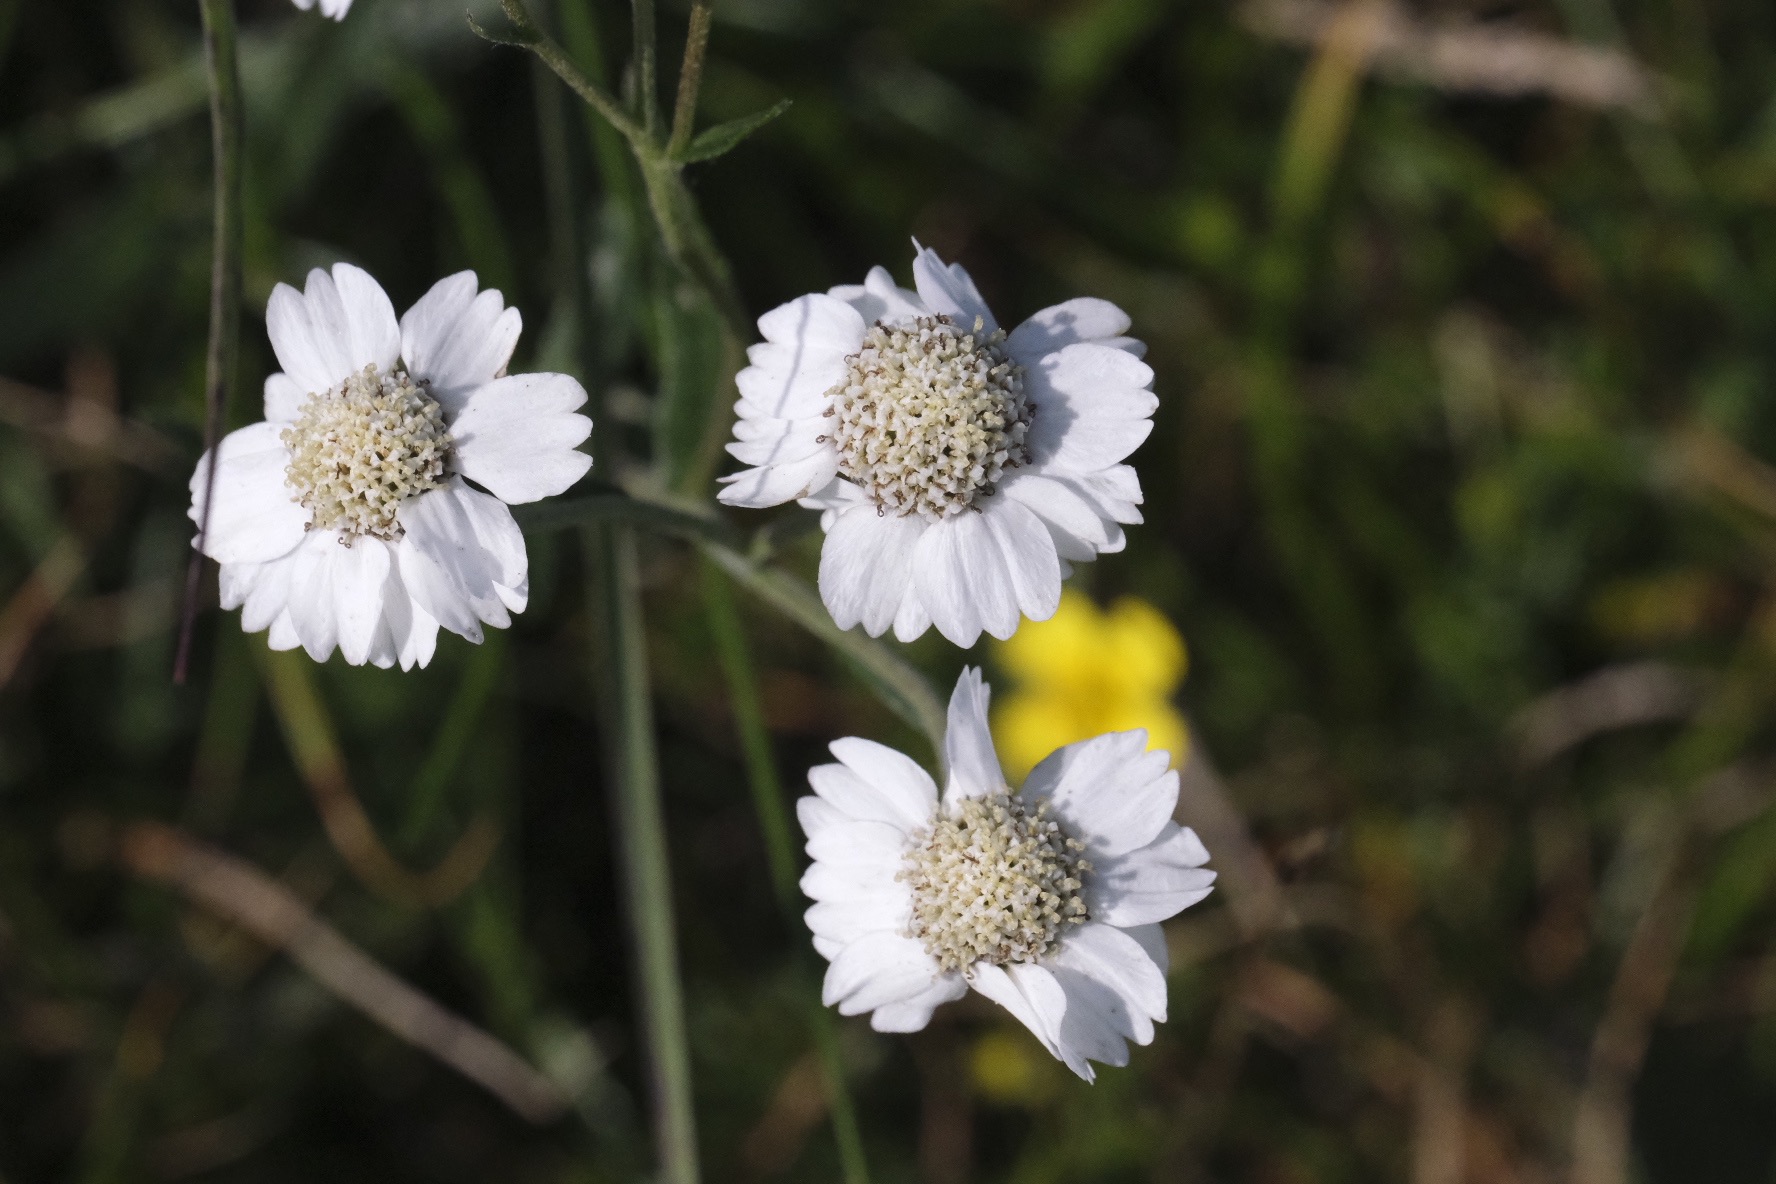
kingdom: Plantae
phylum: Tracheophyta
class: Magnoliopsida
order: Asterales
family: Asteraceae
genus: Achillea
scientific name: Achillea ptarmica
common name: Nyse-røllike
